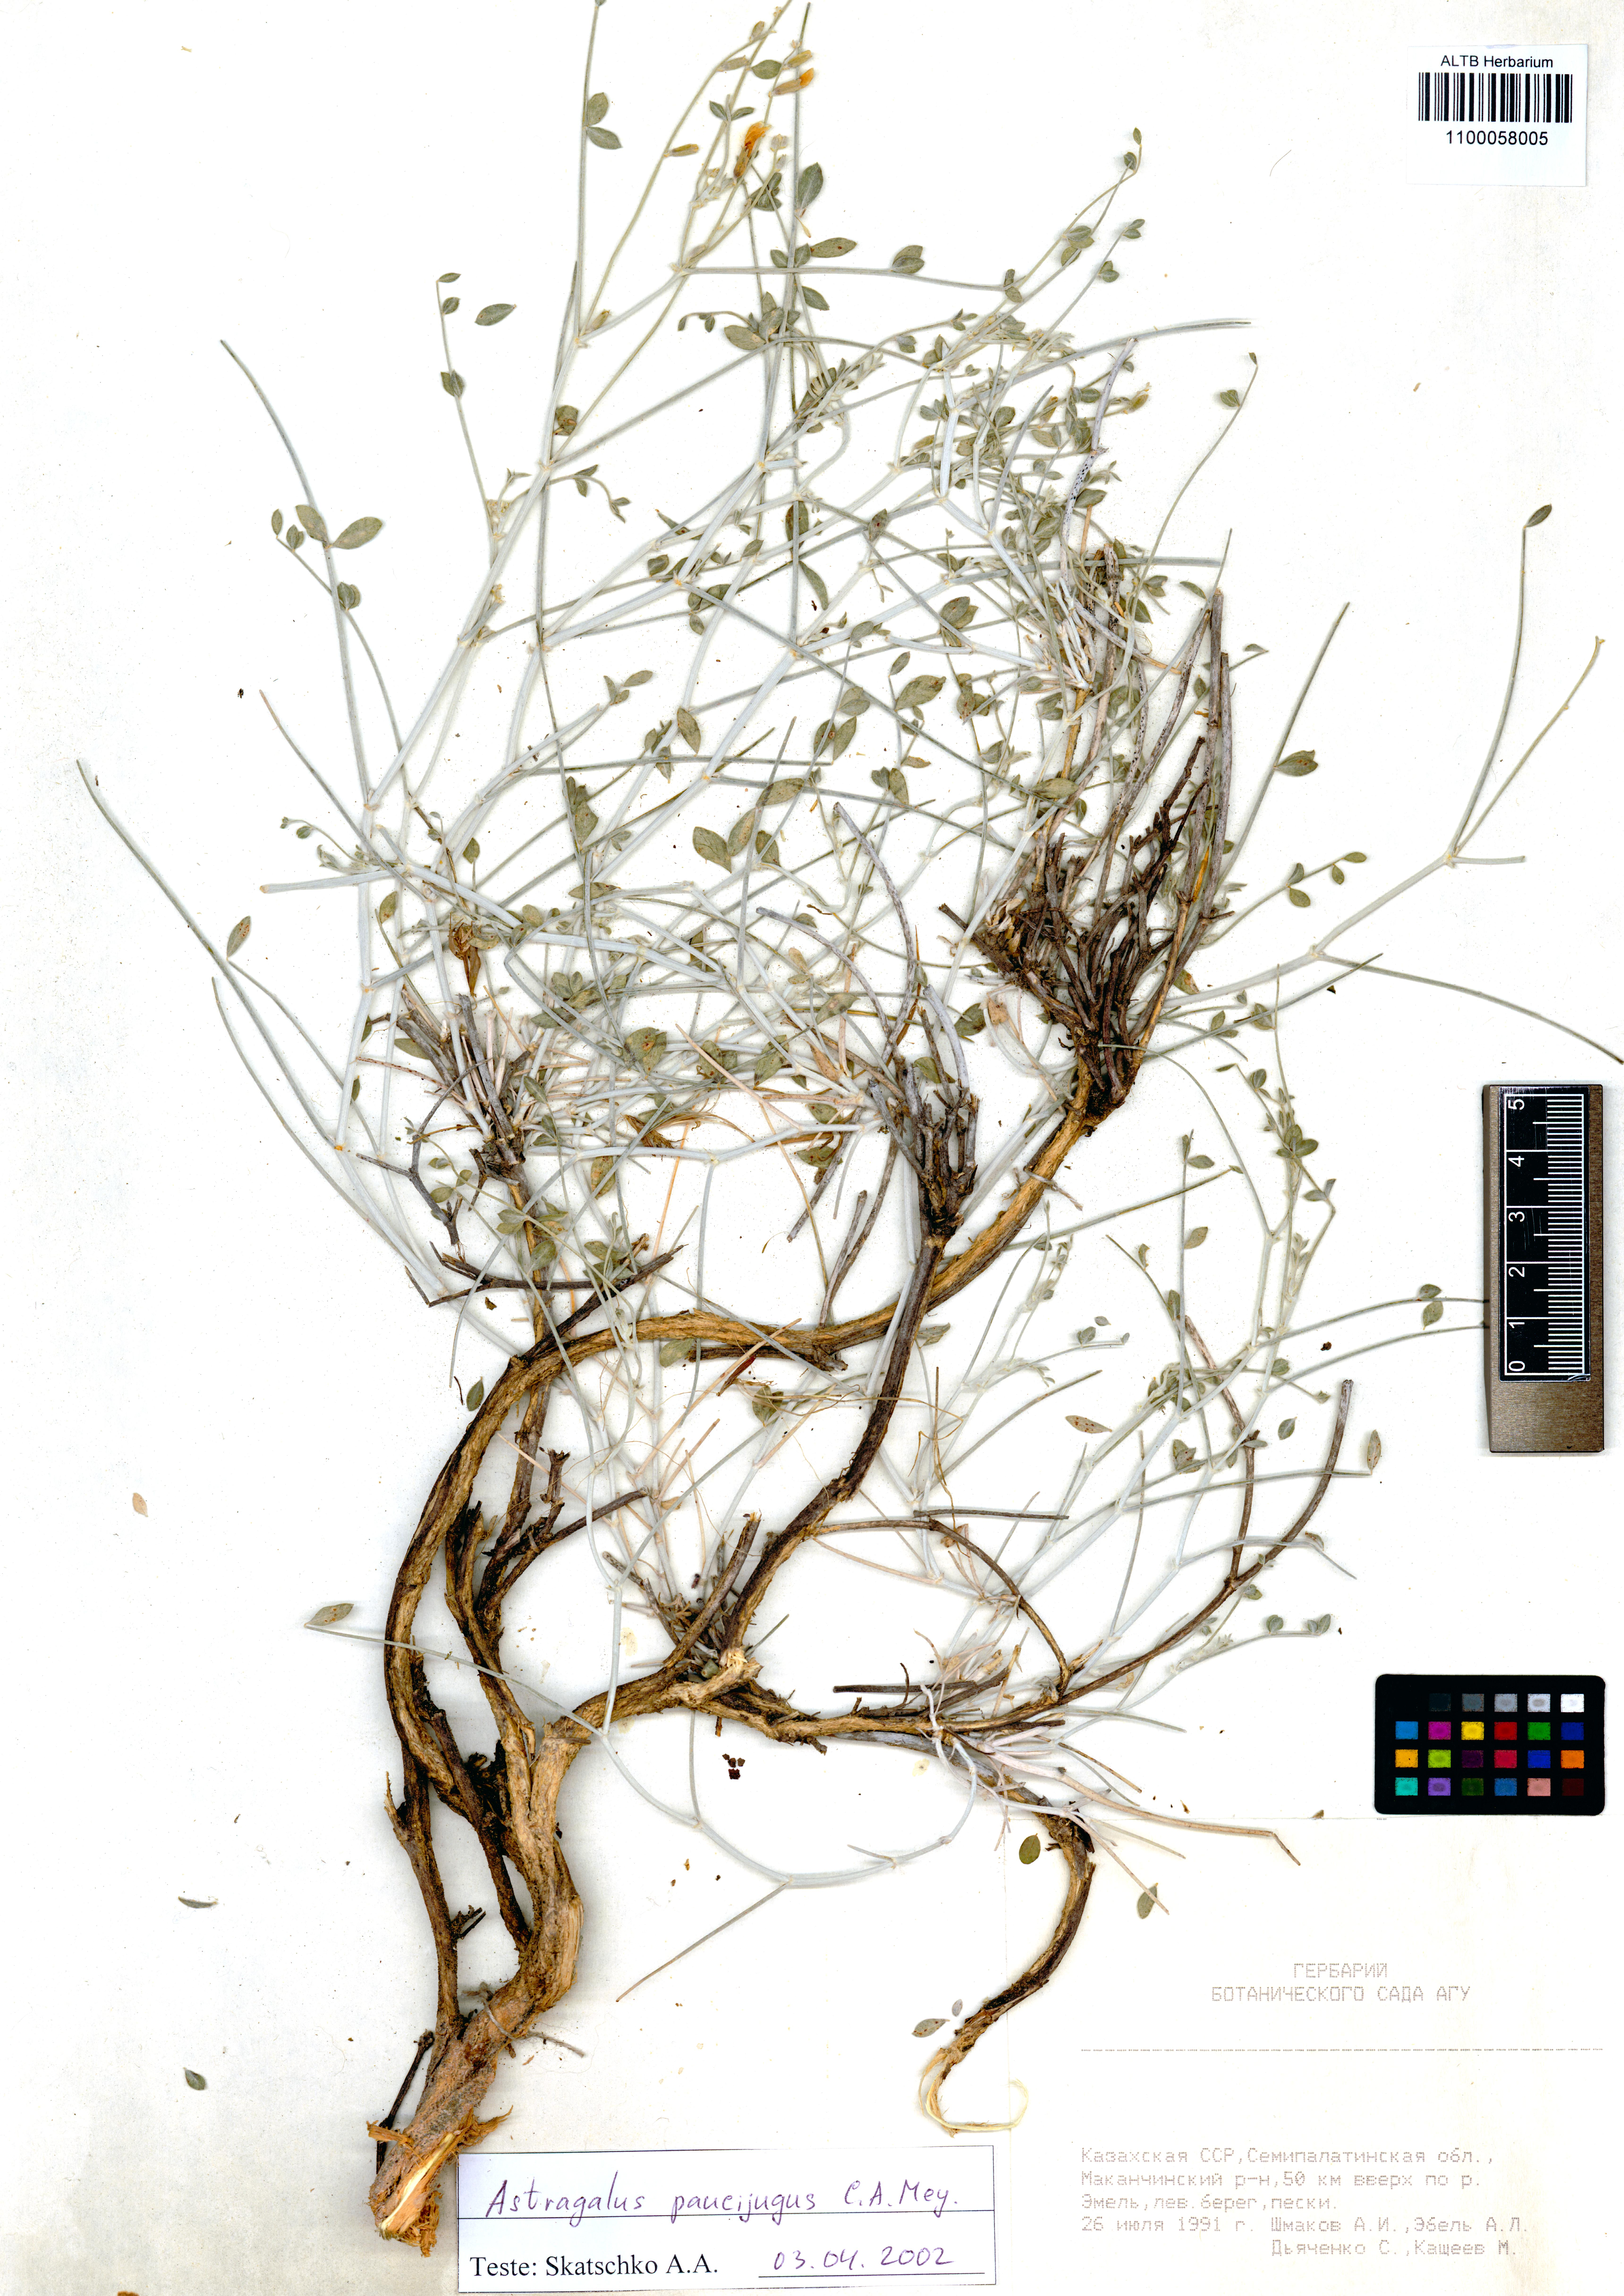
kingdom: Plantae
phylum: Tracheophyta
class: Magnoliopsida
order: Fabales
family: Fabaceae
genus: Astragalus
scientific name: Astragalus paucijugus
